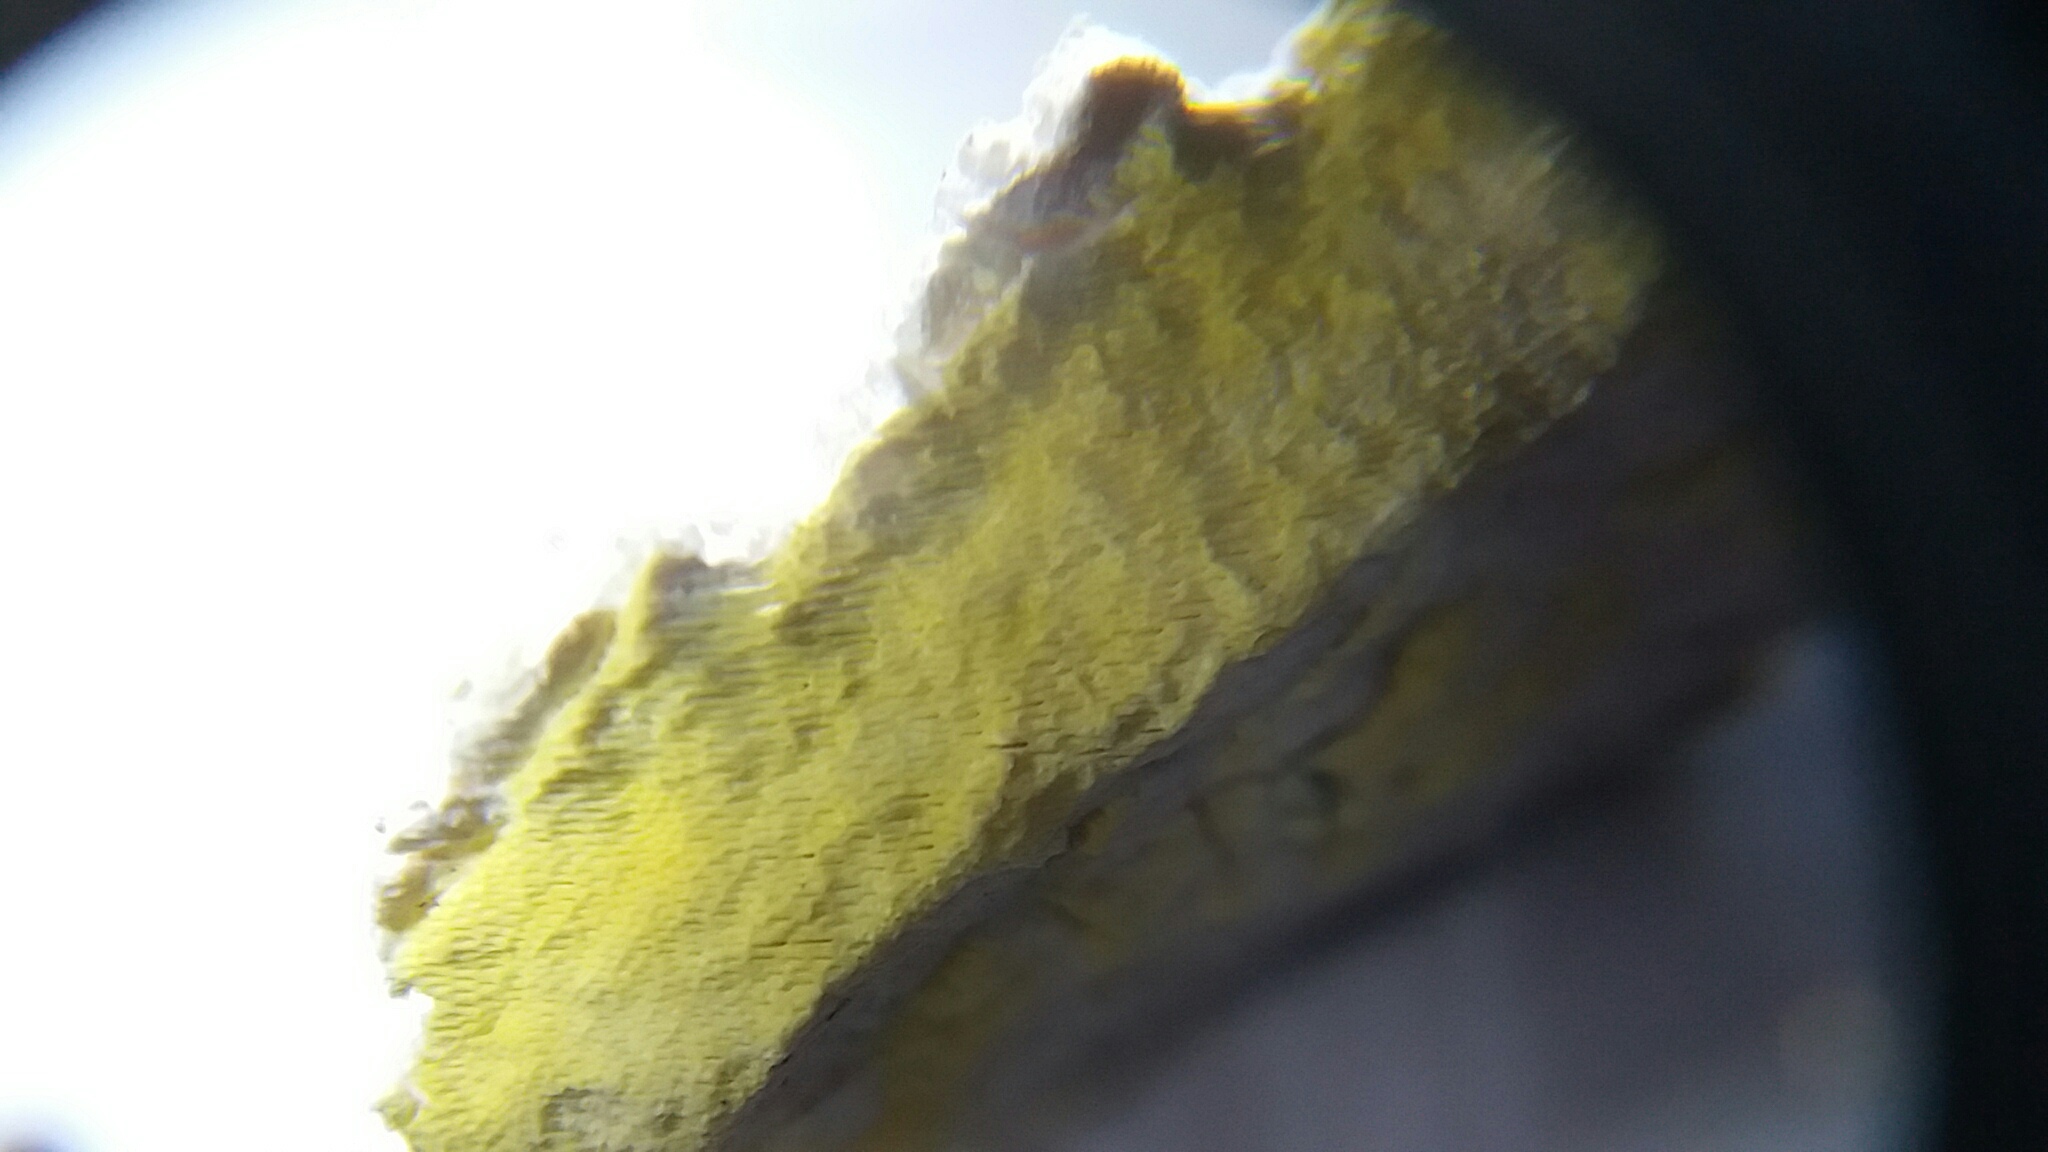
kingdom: Fungi
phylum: Basidiomycota
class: Agaricomycetes
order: Polyporales
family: Fomitopsidaceae
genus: Daedalea
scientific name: Daedalea xantha
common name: gul sejporesvamp
